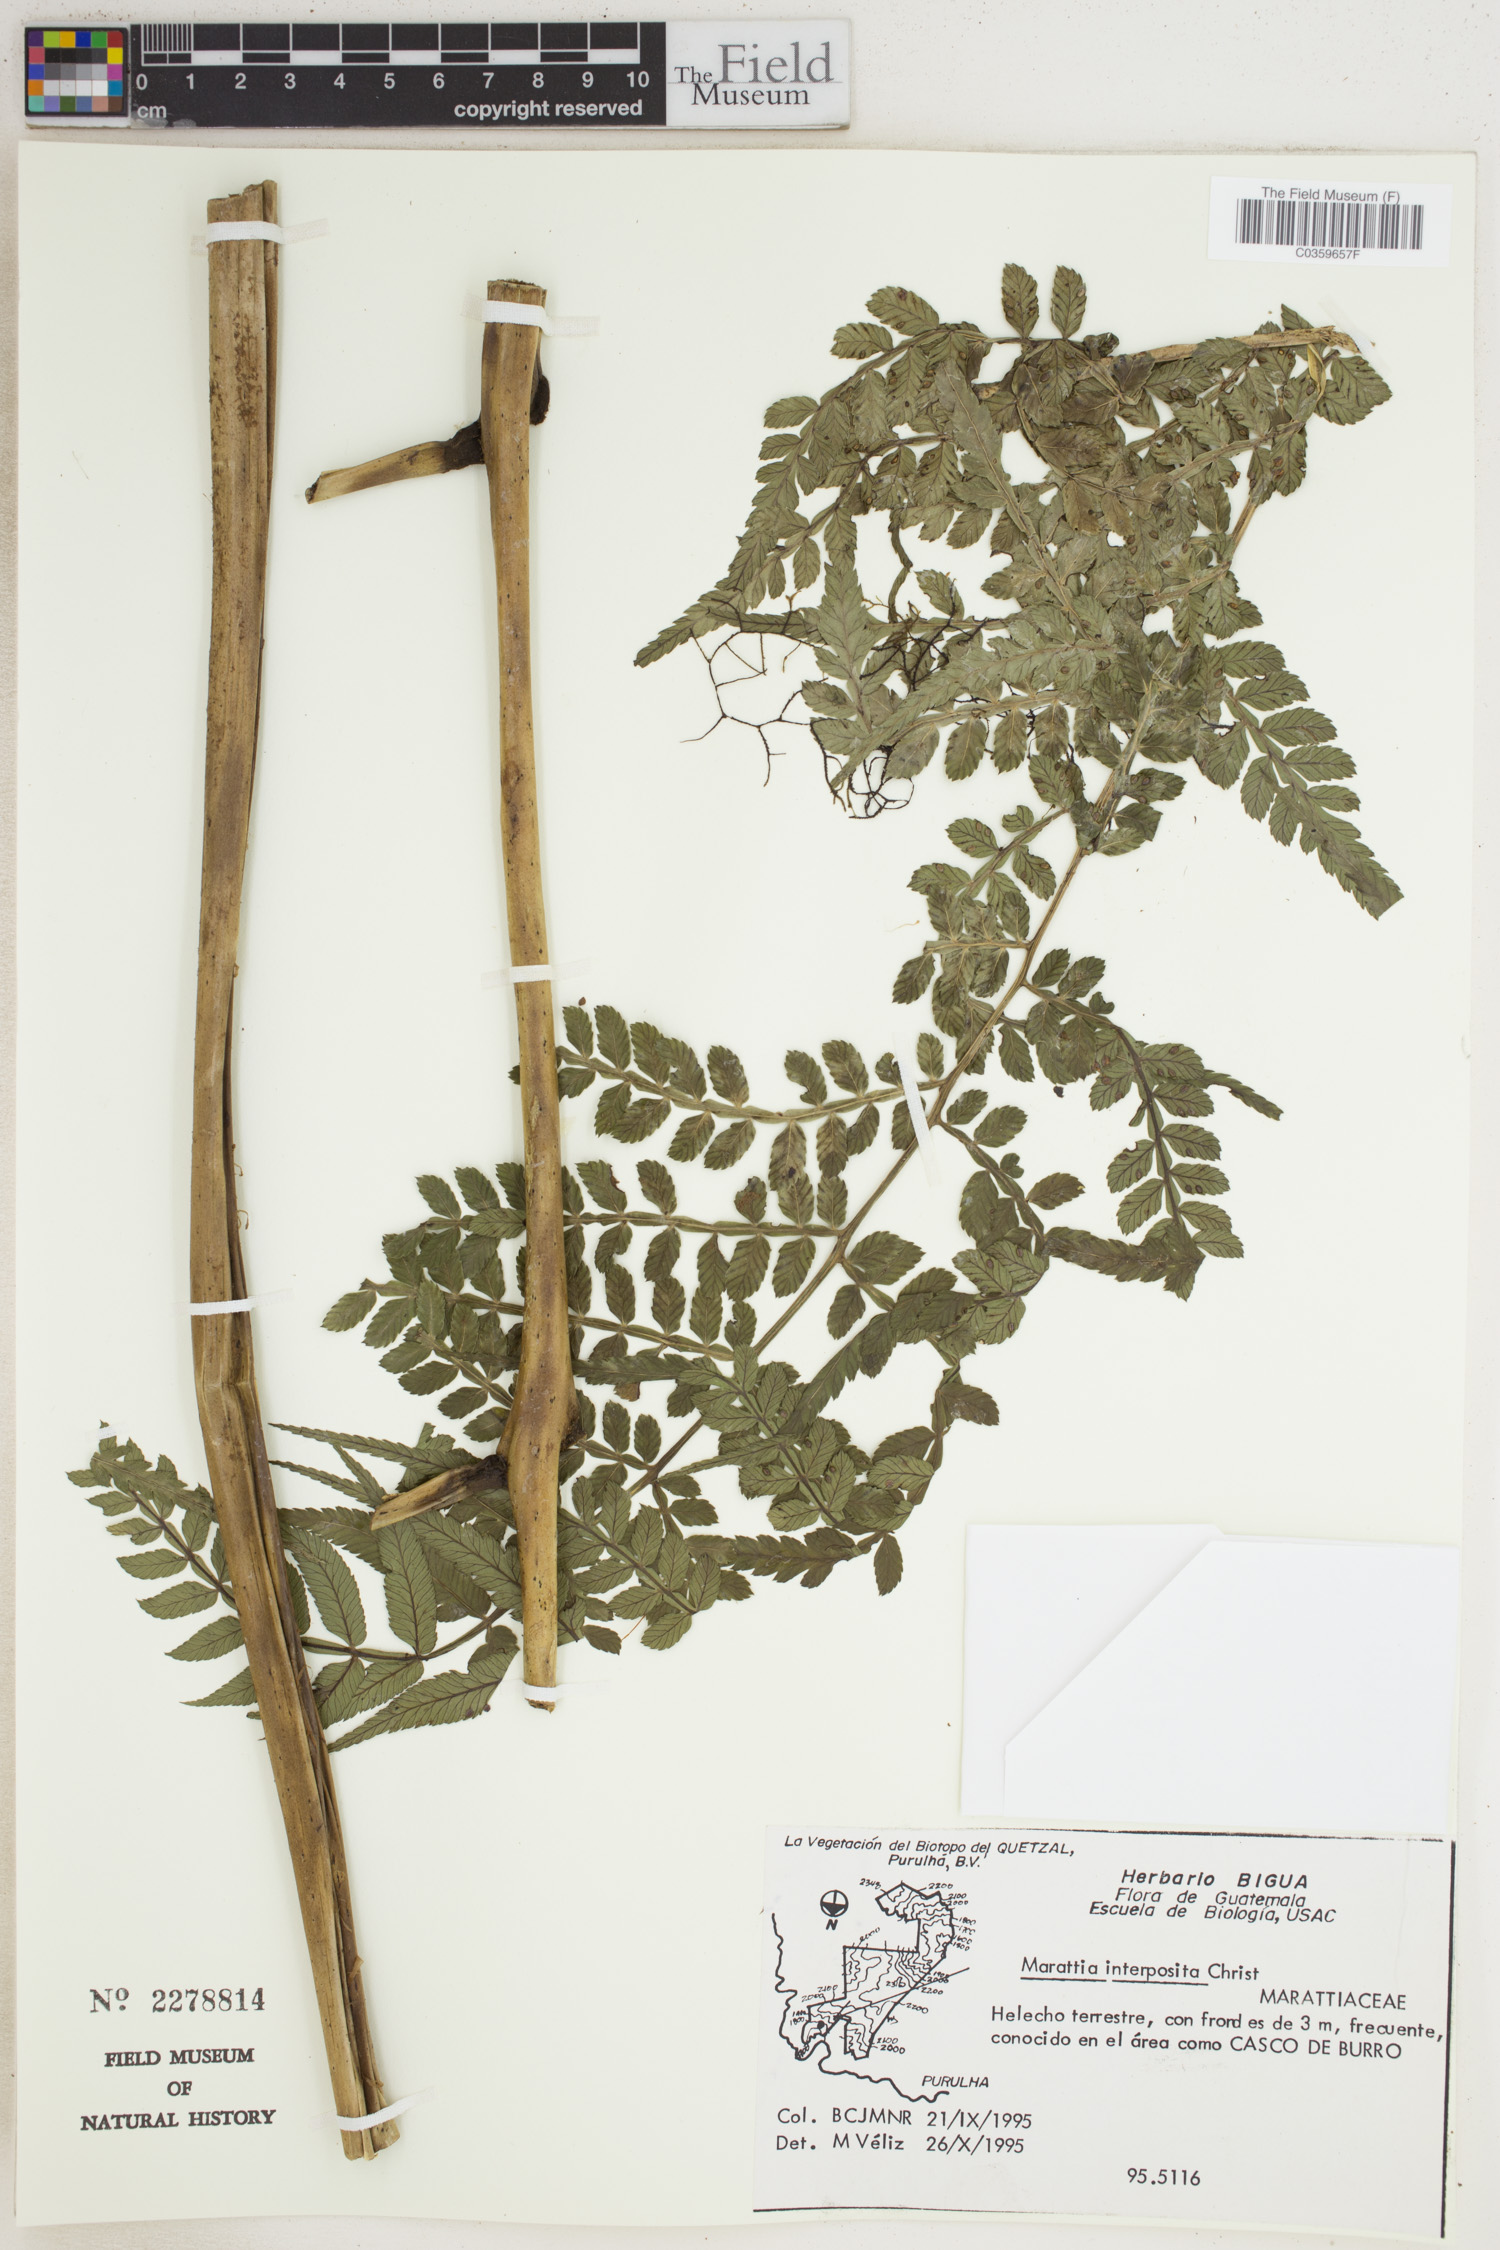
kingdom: Plantae
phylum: Tracheophyta
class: Polypodiopsida
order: Marattiales
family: Marattiaceae
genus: Marattia
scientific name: Marattia interposita
